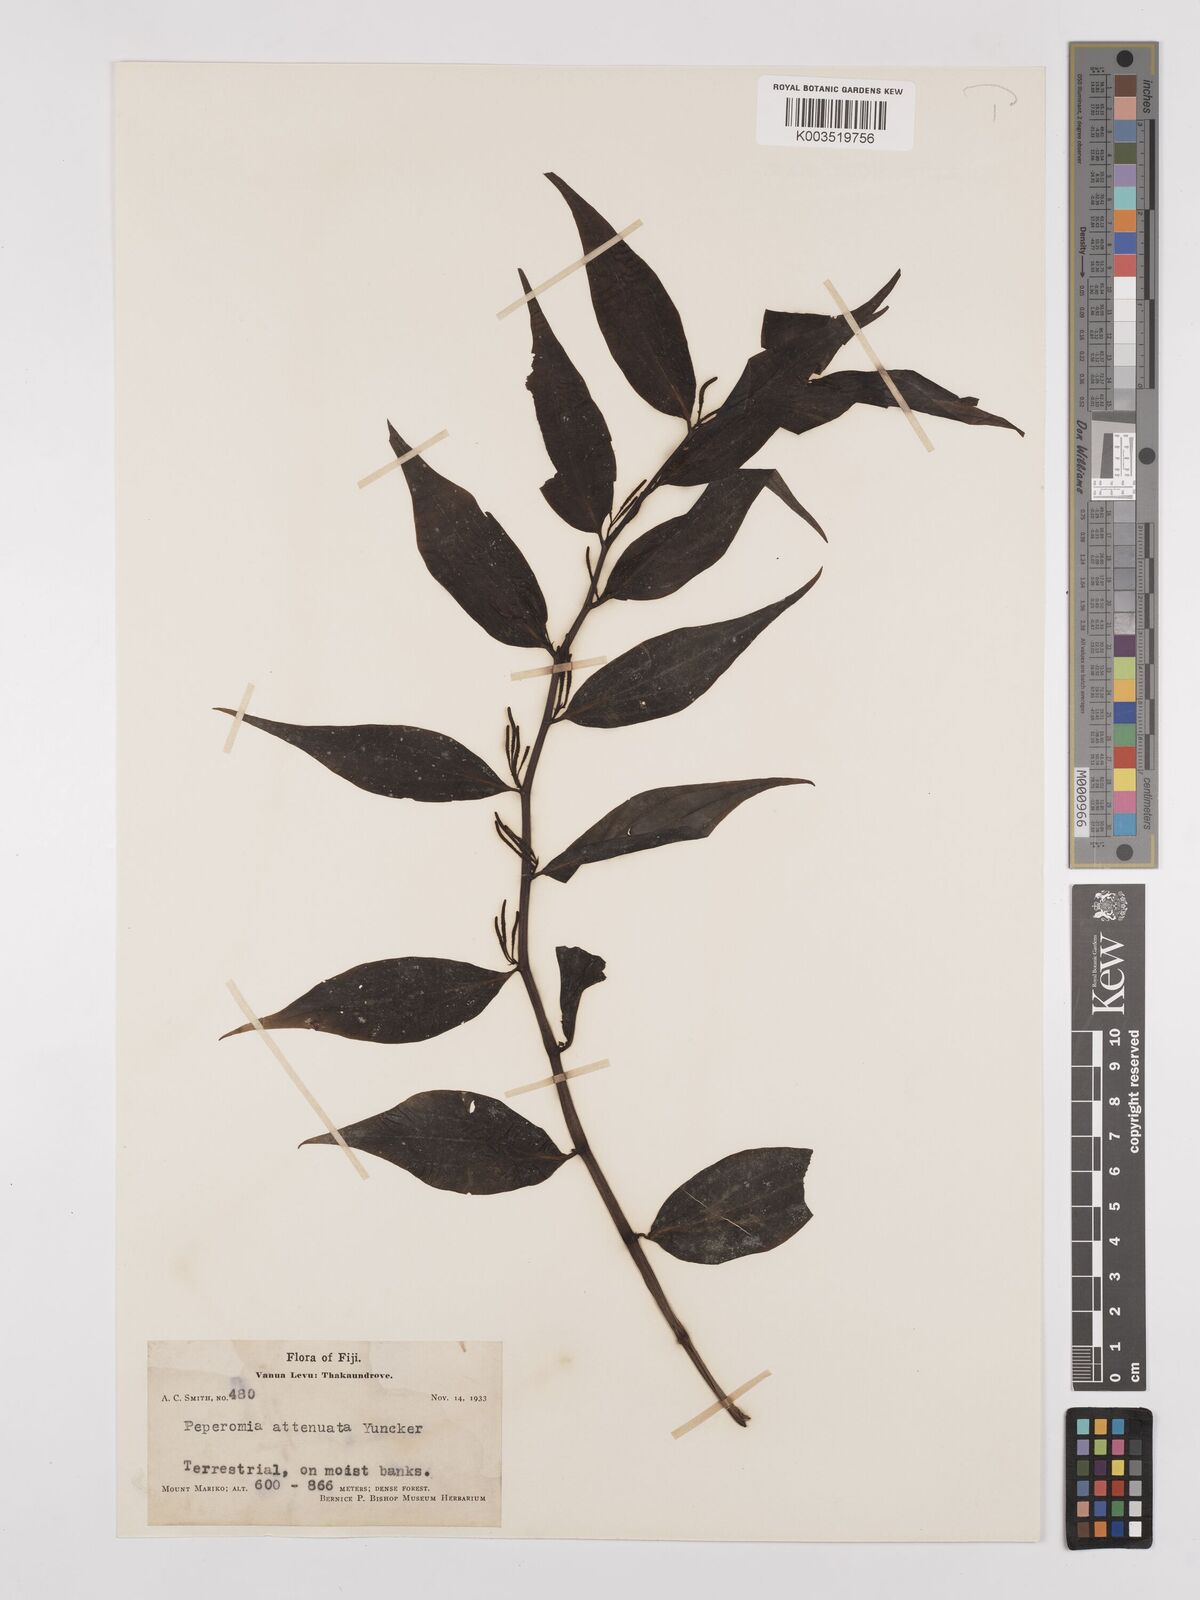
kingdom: Plantae
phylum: Tracheophyta
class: Magnoliopsida
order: Piperales
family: Piperaceae
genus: Peperomia
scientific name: Peperomia attenuata
